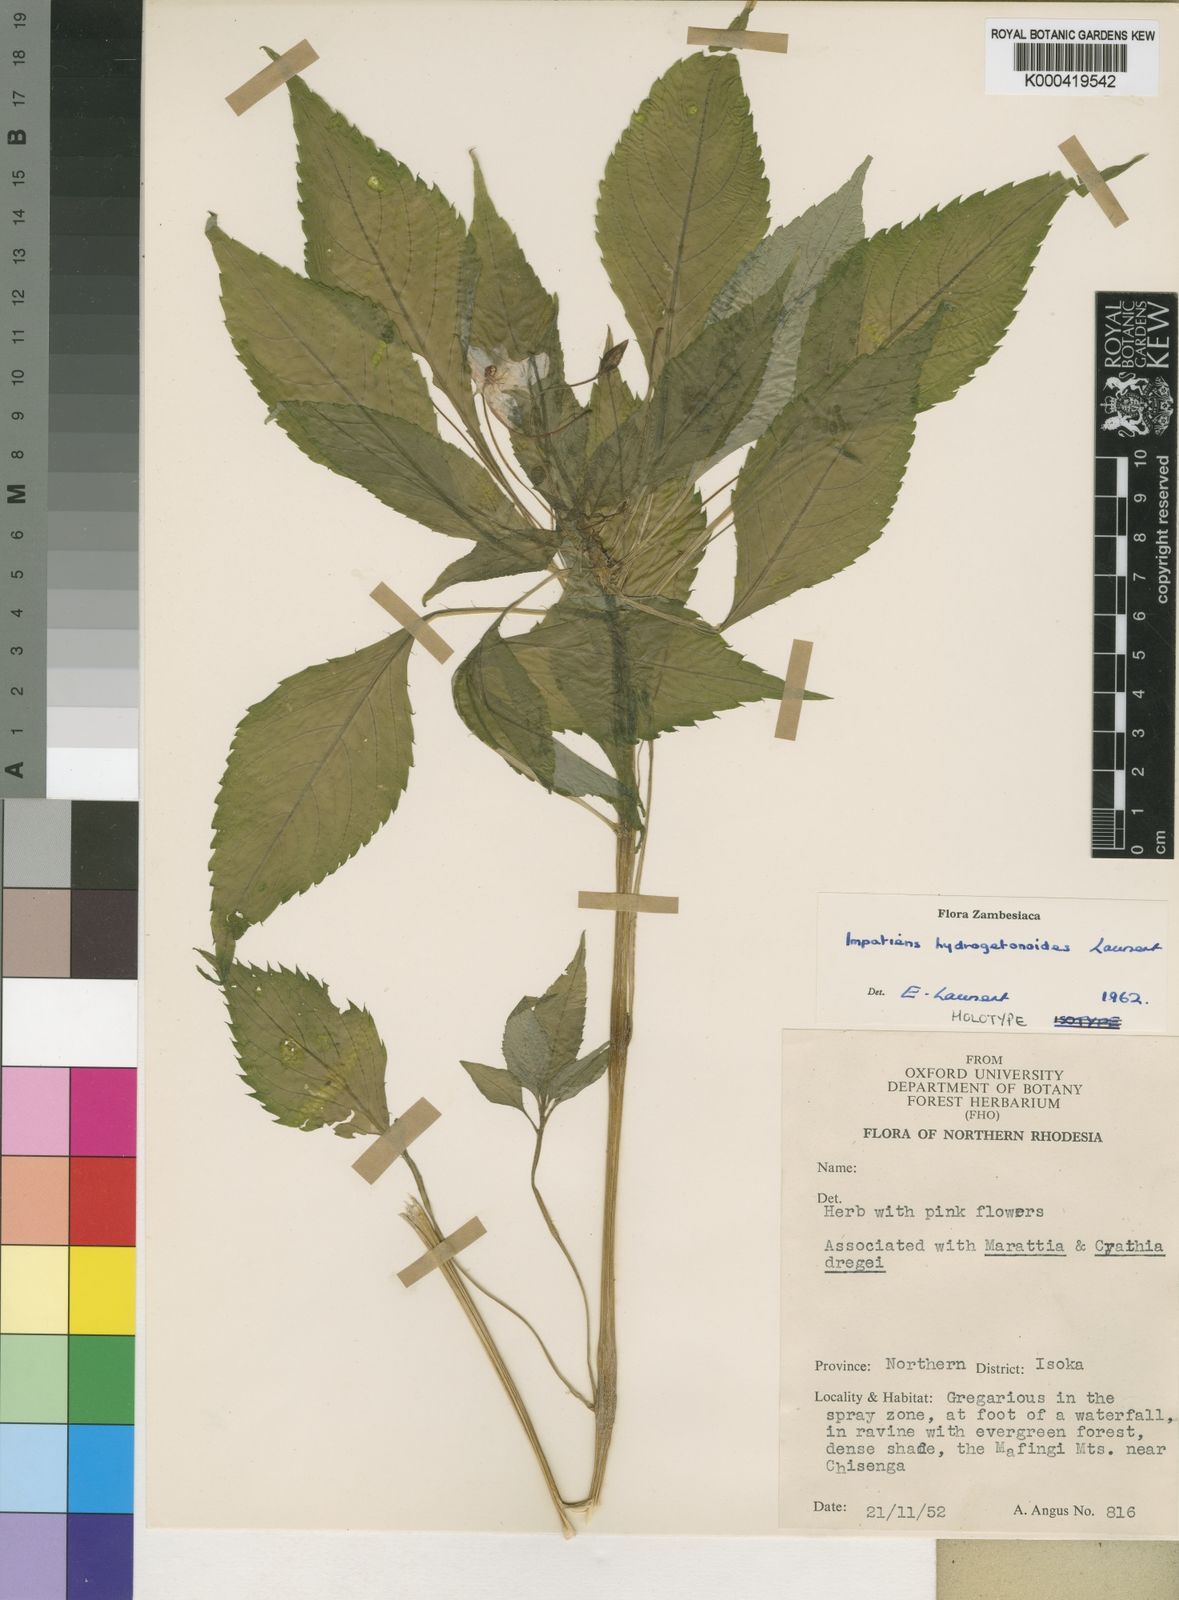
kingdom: Plantae
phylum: Tracheophyta
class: Magnoliopsida
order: Ericales
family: Balsaminaceae
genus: Impatiens
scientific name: Impatiens hydrogetonoides
